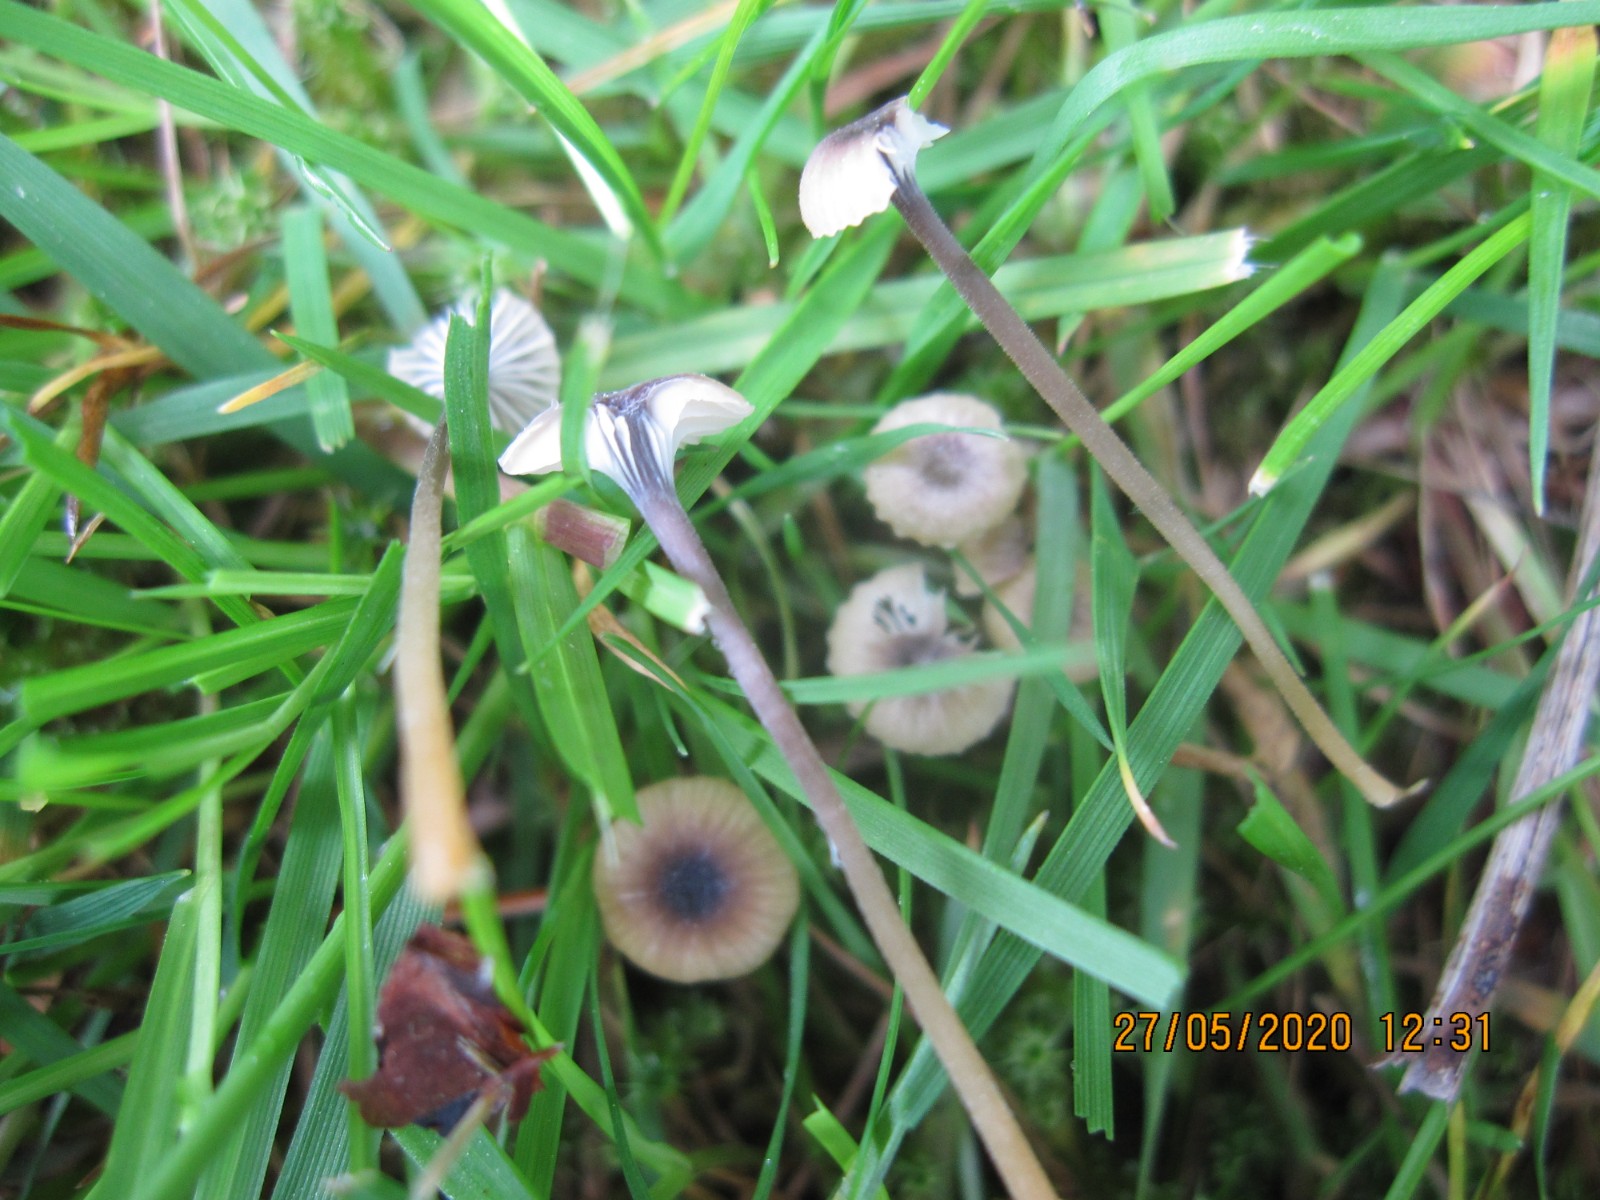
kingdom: Fungi
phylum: Basidiomycota
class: Agaricomycetes
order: Hymenochaetales
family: Rickenellaceae
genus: Rickenella
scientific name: Rickenella swartzii
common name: finstokket mosnavlehat
